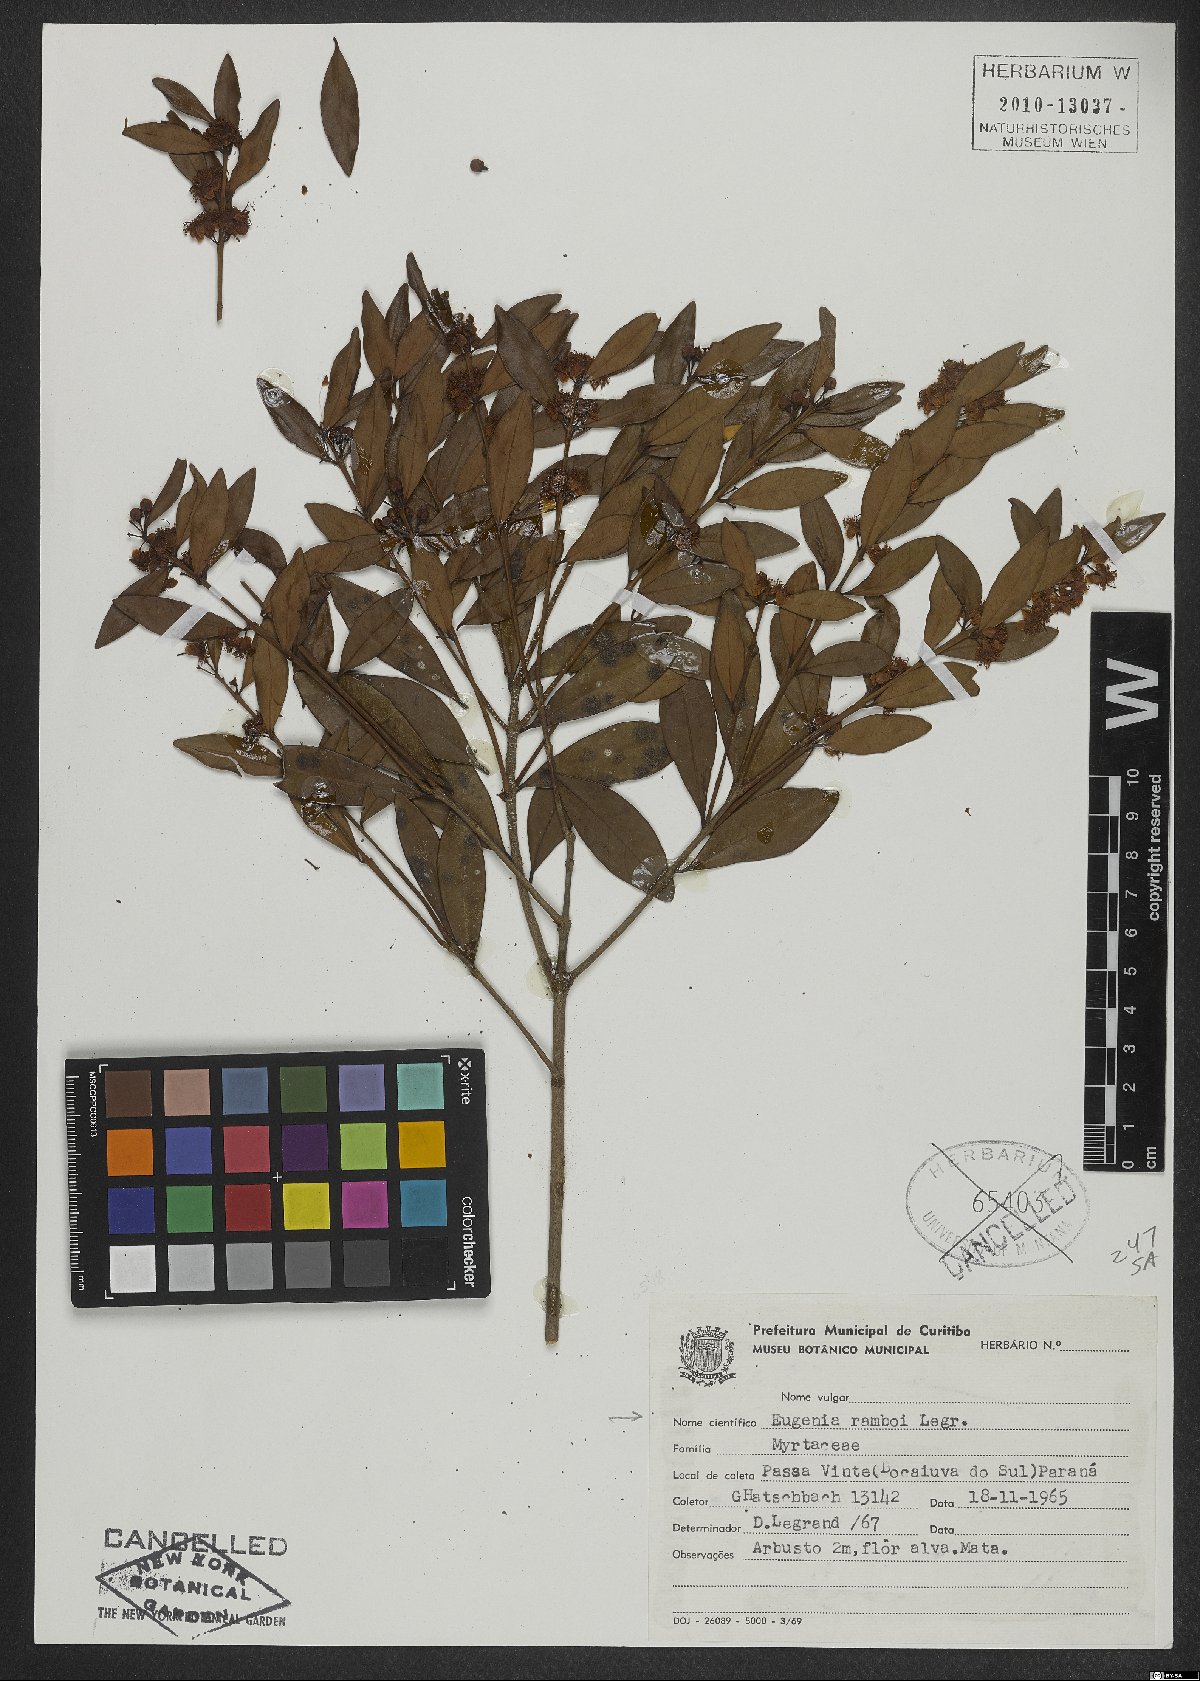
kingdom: Plantae
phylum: Tracheophyta
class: Magnoliopsida
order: Myrtales
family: Myrtaceae
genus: Eugenia
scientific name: Eugenia ramboi
